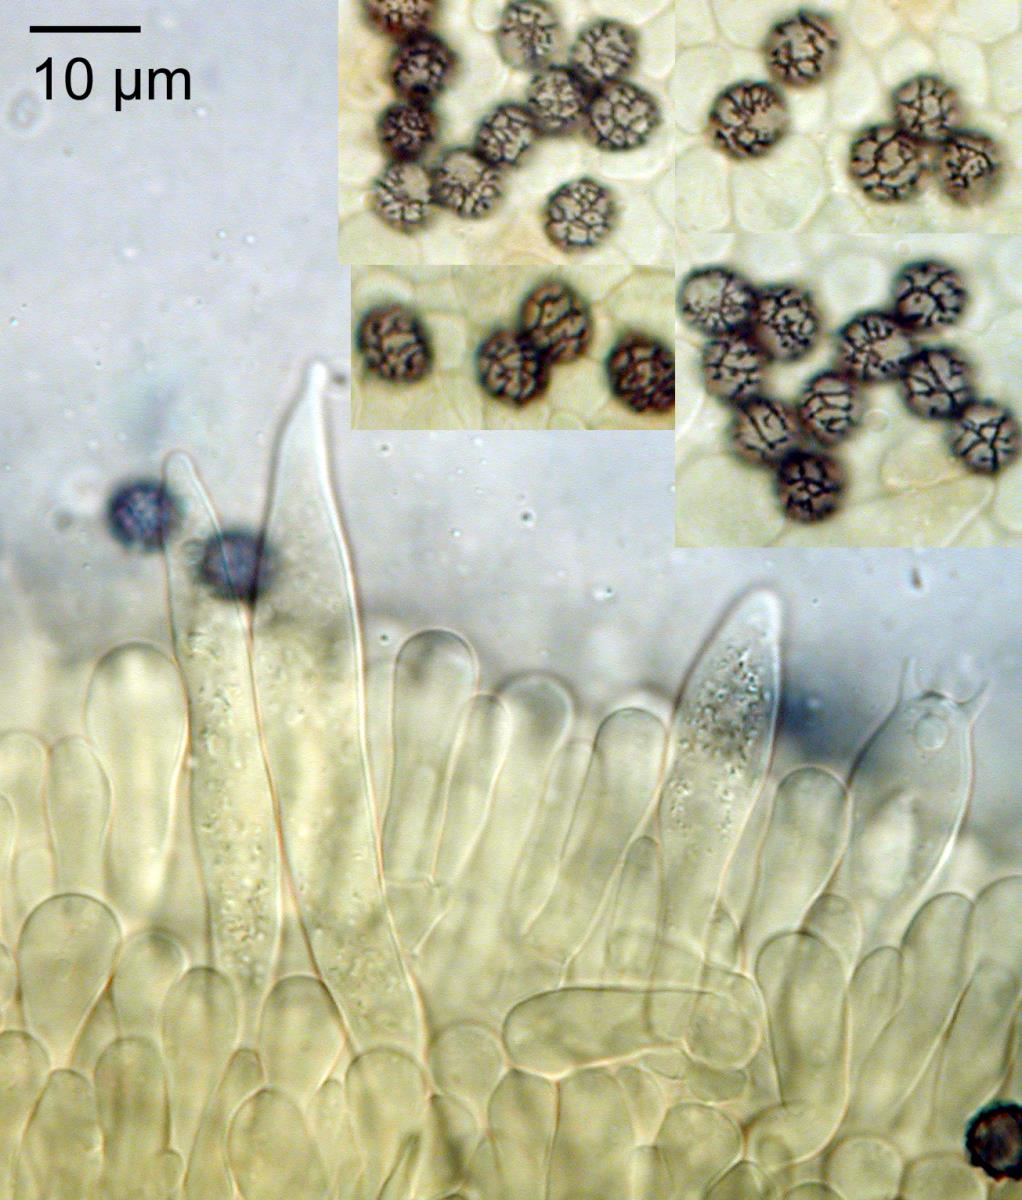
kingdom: Fungi
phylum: Basidiomycota
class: Agaricomycetes
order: Russulales
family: Russulaceae
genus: Lactarius
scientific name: Lactarius
